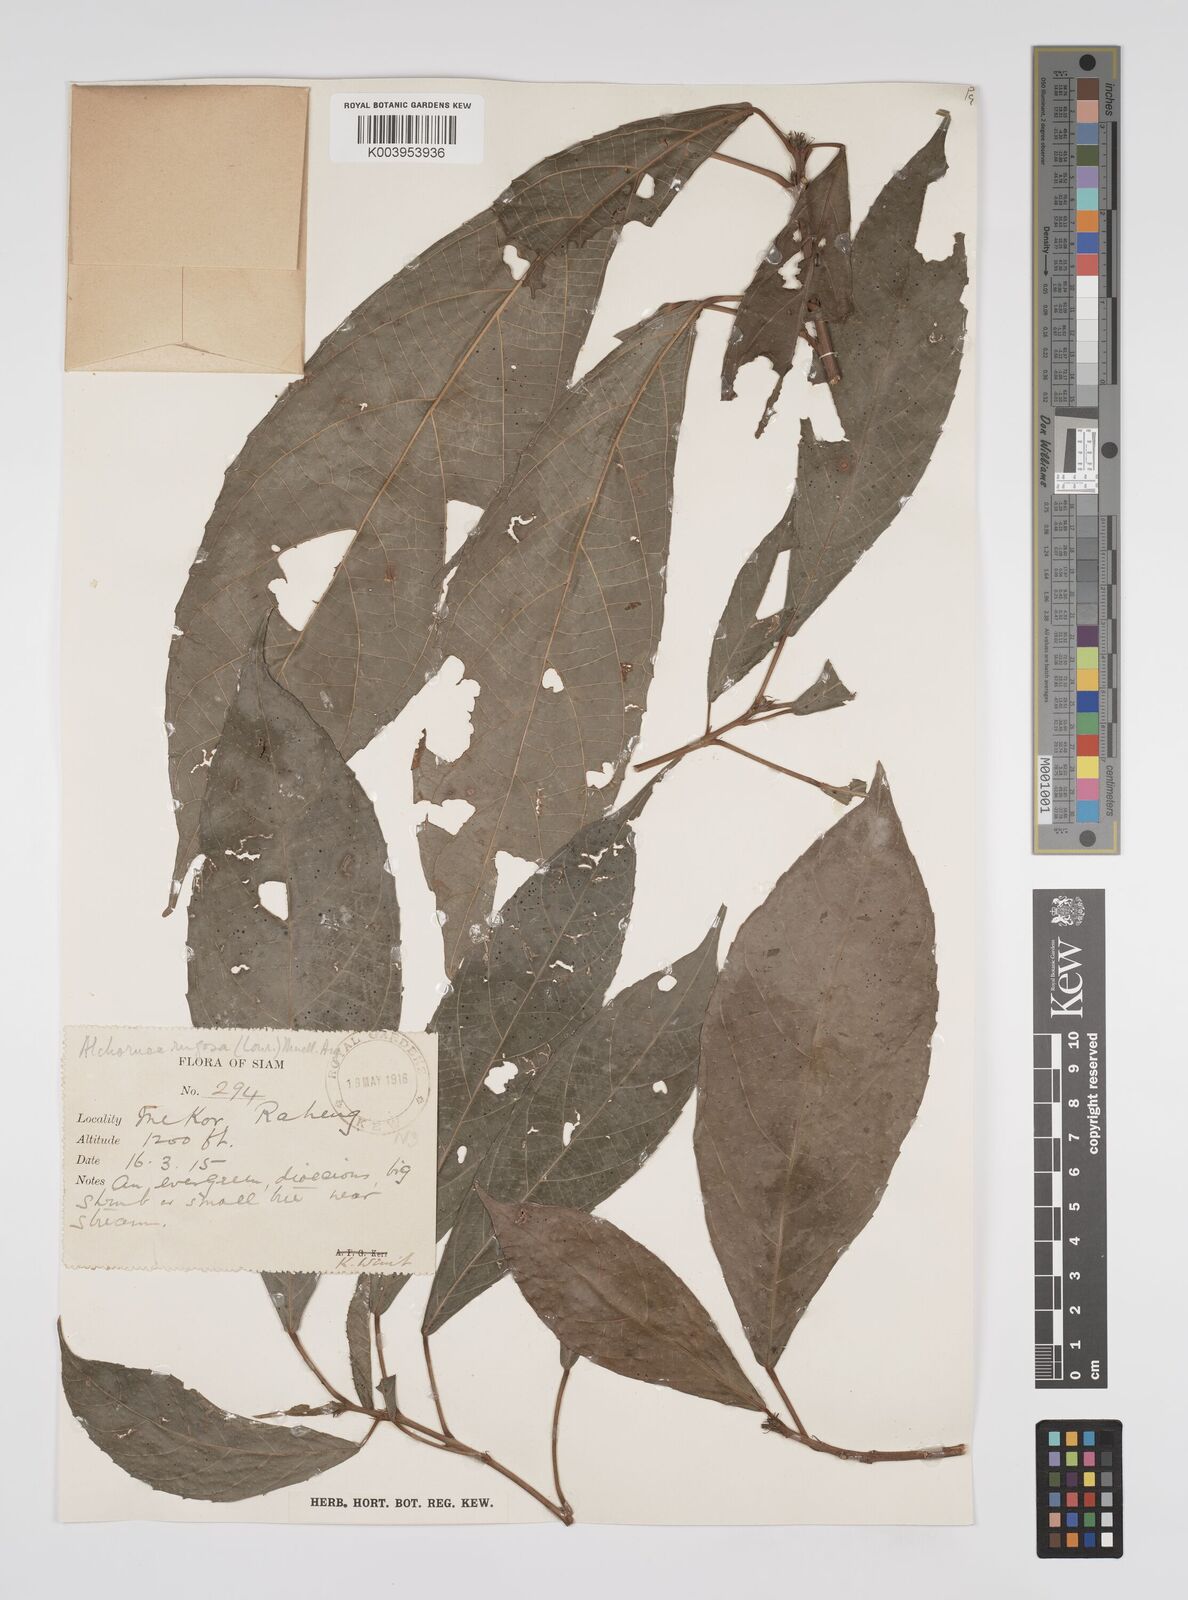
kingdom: Plantae
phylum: Tracheophyta
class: Magnoliopsida
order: Malpighiales
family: Euphorbiaceae
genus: Alchornea
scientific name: Alchornea rugosa
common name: Alchorntree
